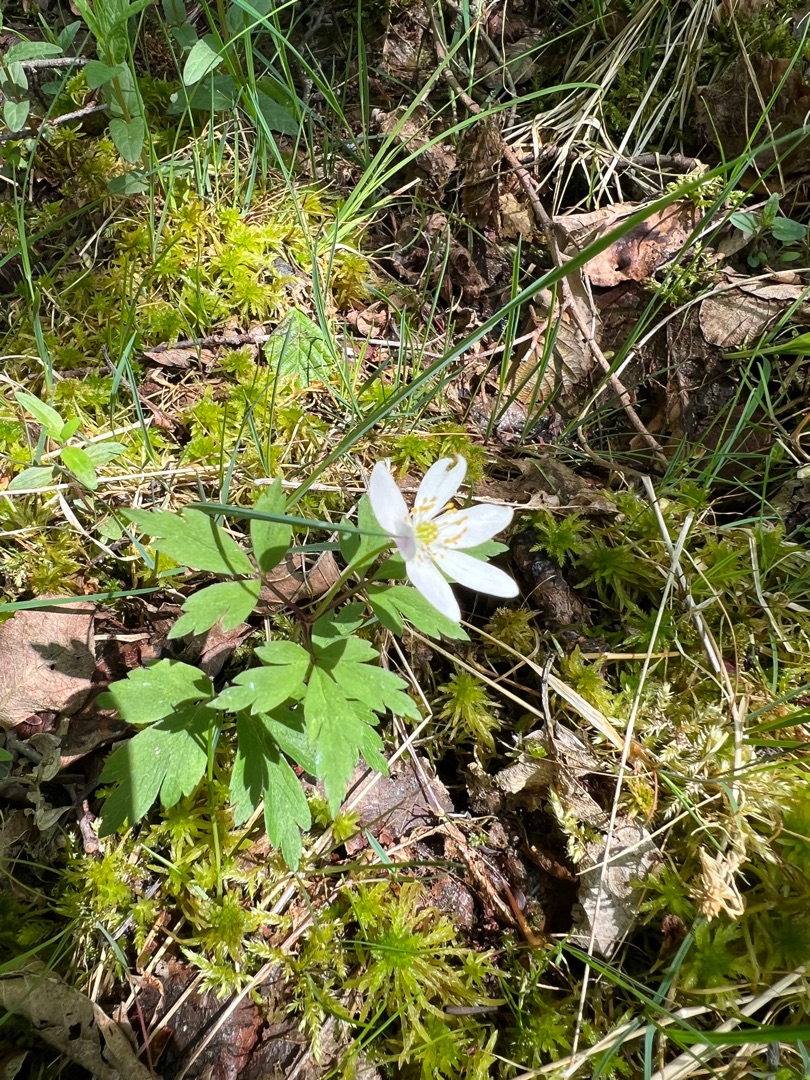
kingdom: Plantae
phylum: Tracheophyta
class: Magnoliopsida
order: Ranunculales
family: Ranunculaceae
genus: Anemone
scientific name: Anemone nemorosa
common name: Hvid anemone
